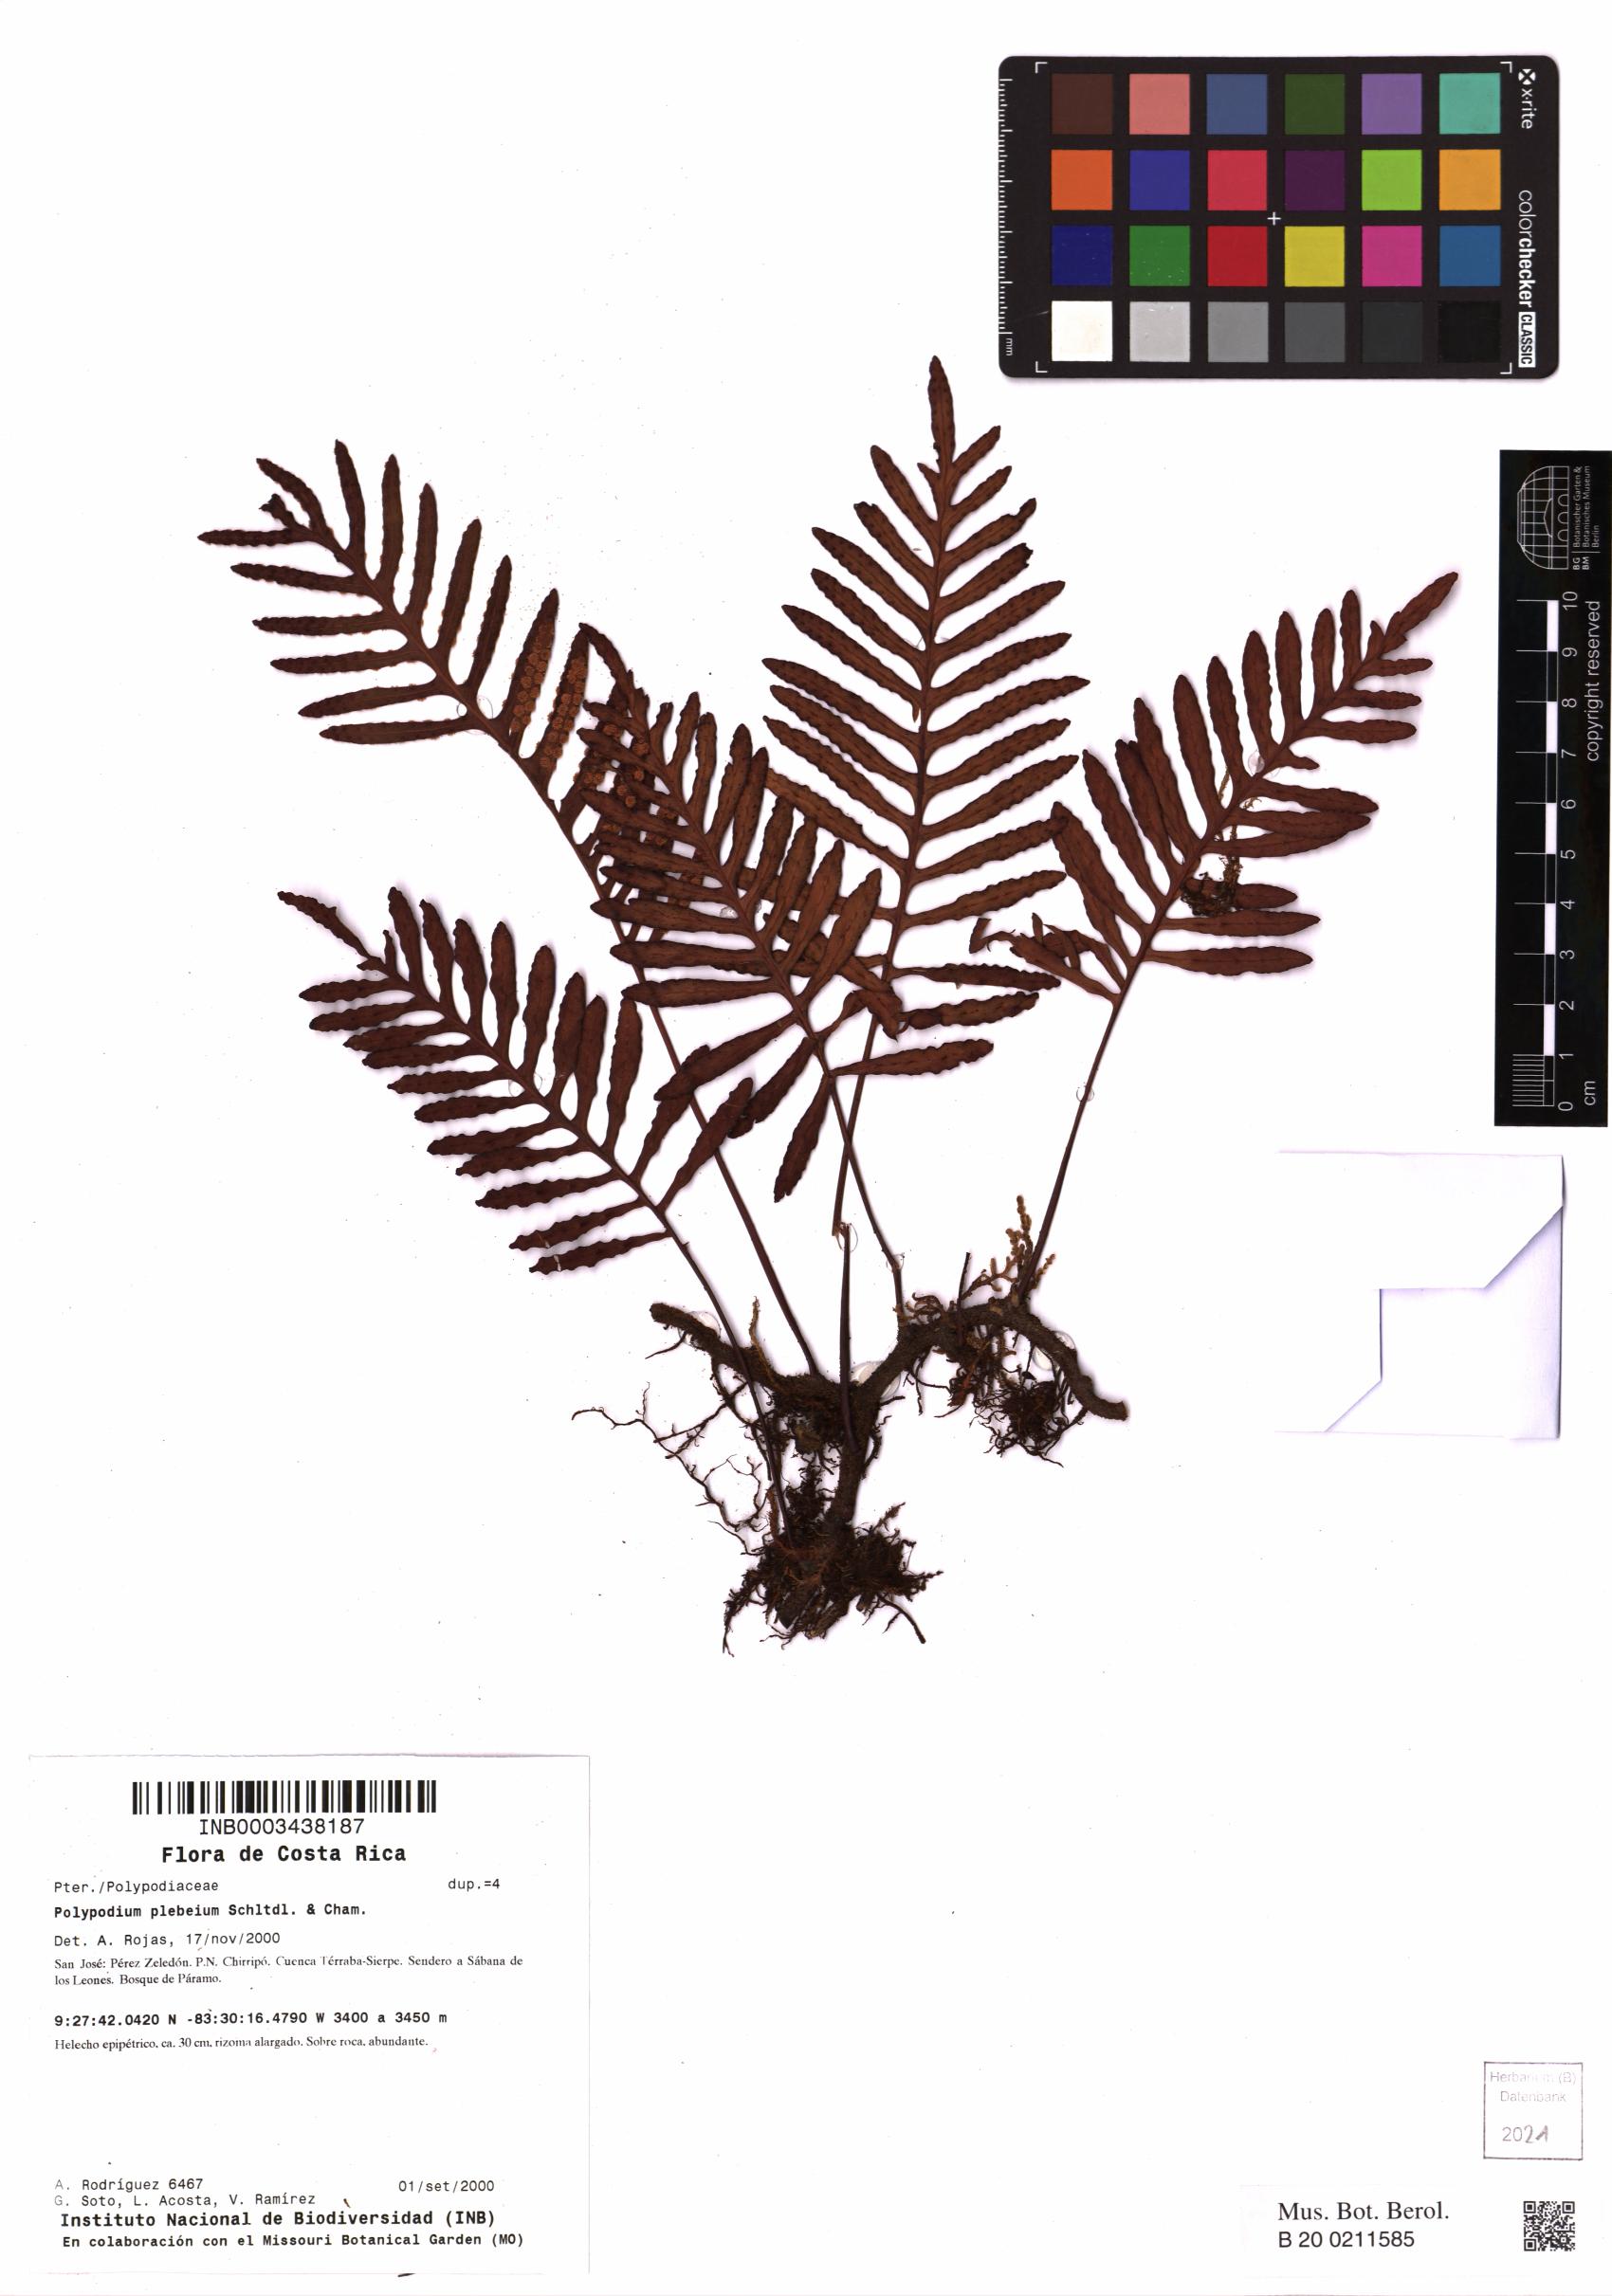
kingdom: Plantae
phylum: Tracheophyta
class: Polypodiopsida
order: Polypodiales
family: Polypodiaceae
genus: Pleopeltis
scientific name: Pleopeltis plebeia
